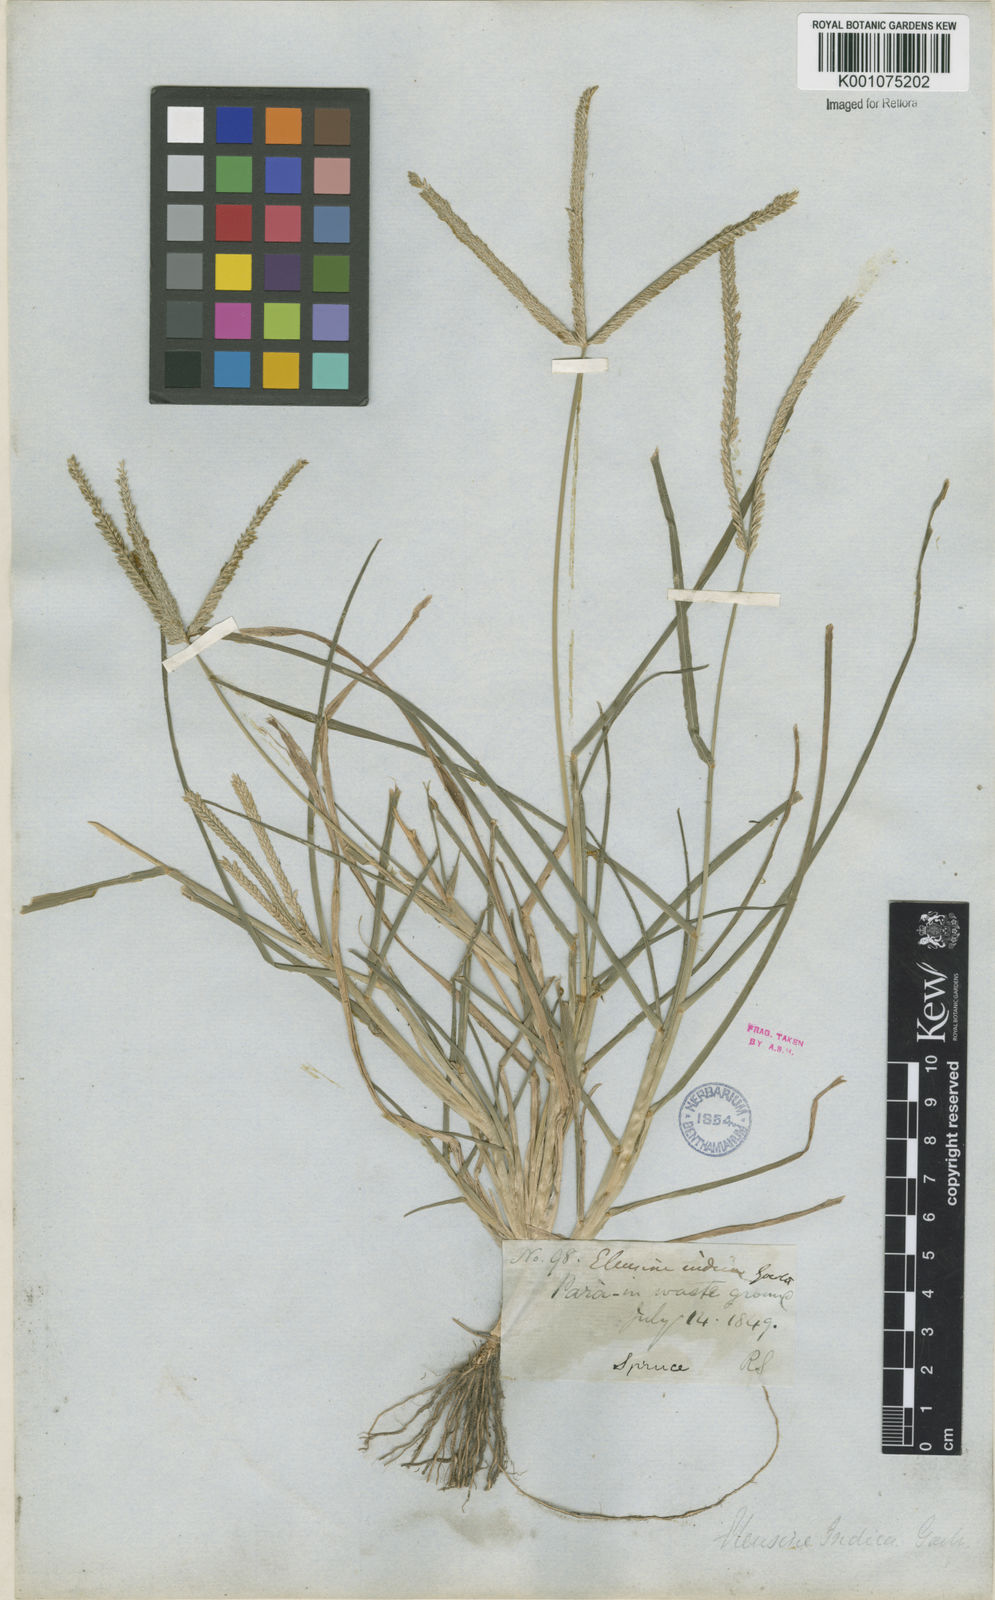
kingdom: Plantae
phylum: Tracheophyta
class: Liliopsida
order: Poales
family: Poaceae
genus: Eleusine
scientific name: Eleusine indica
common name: Yard-grass
